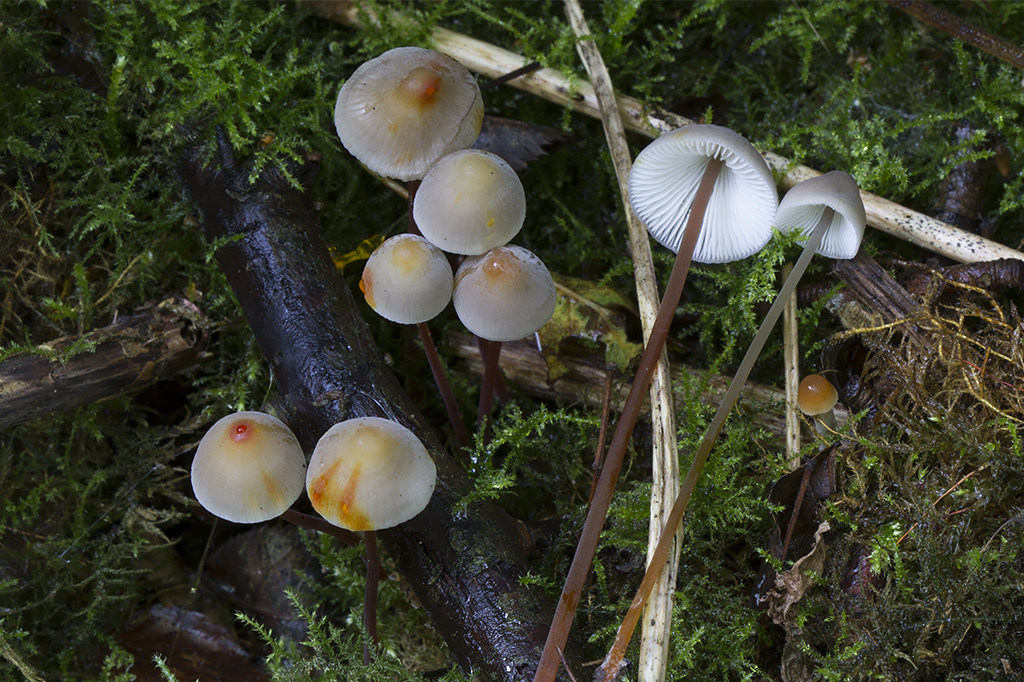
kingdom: Fungi
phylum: Basidiomycota
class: Agaricomycetes
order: Agaricales
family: Mycenaceae
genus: Mycena
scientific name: Mycena crocata
